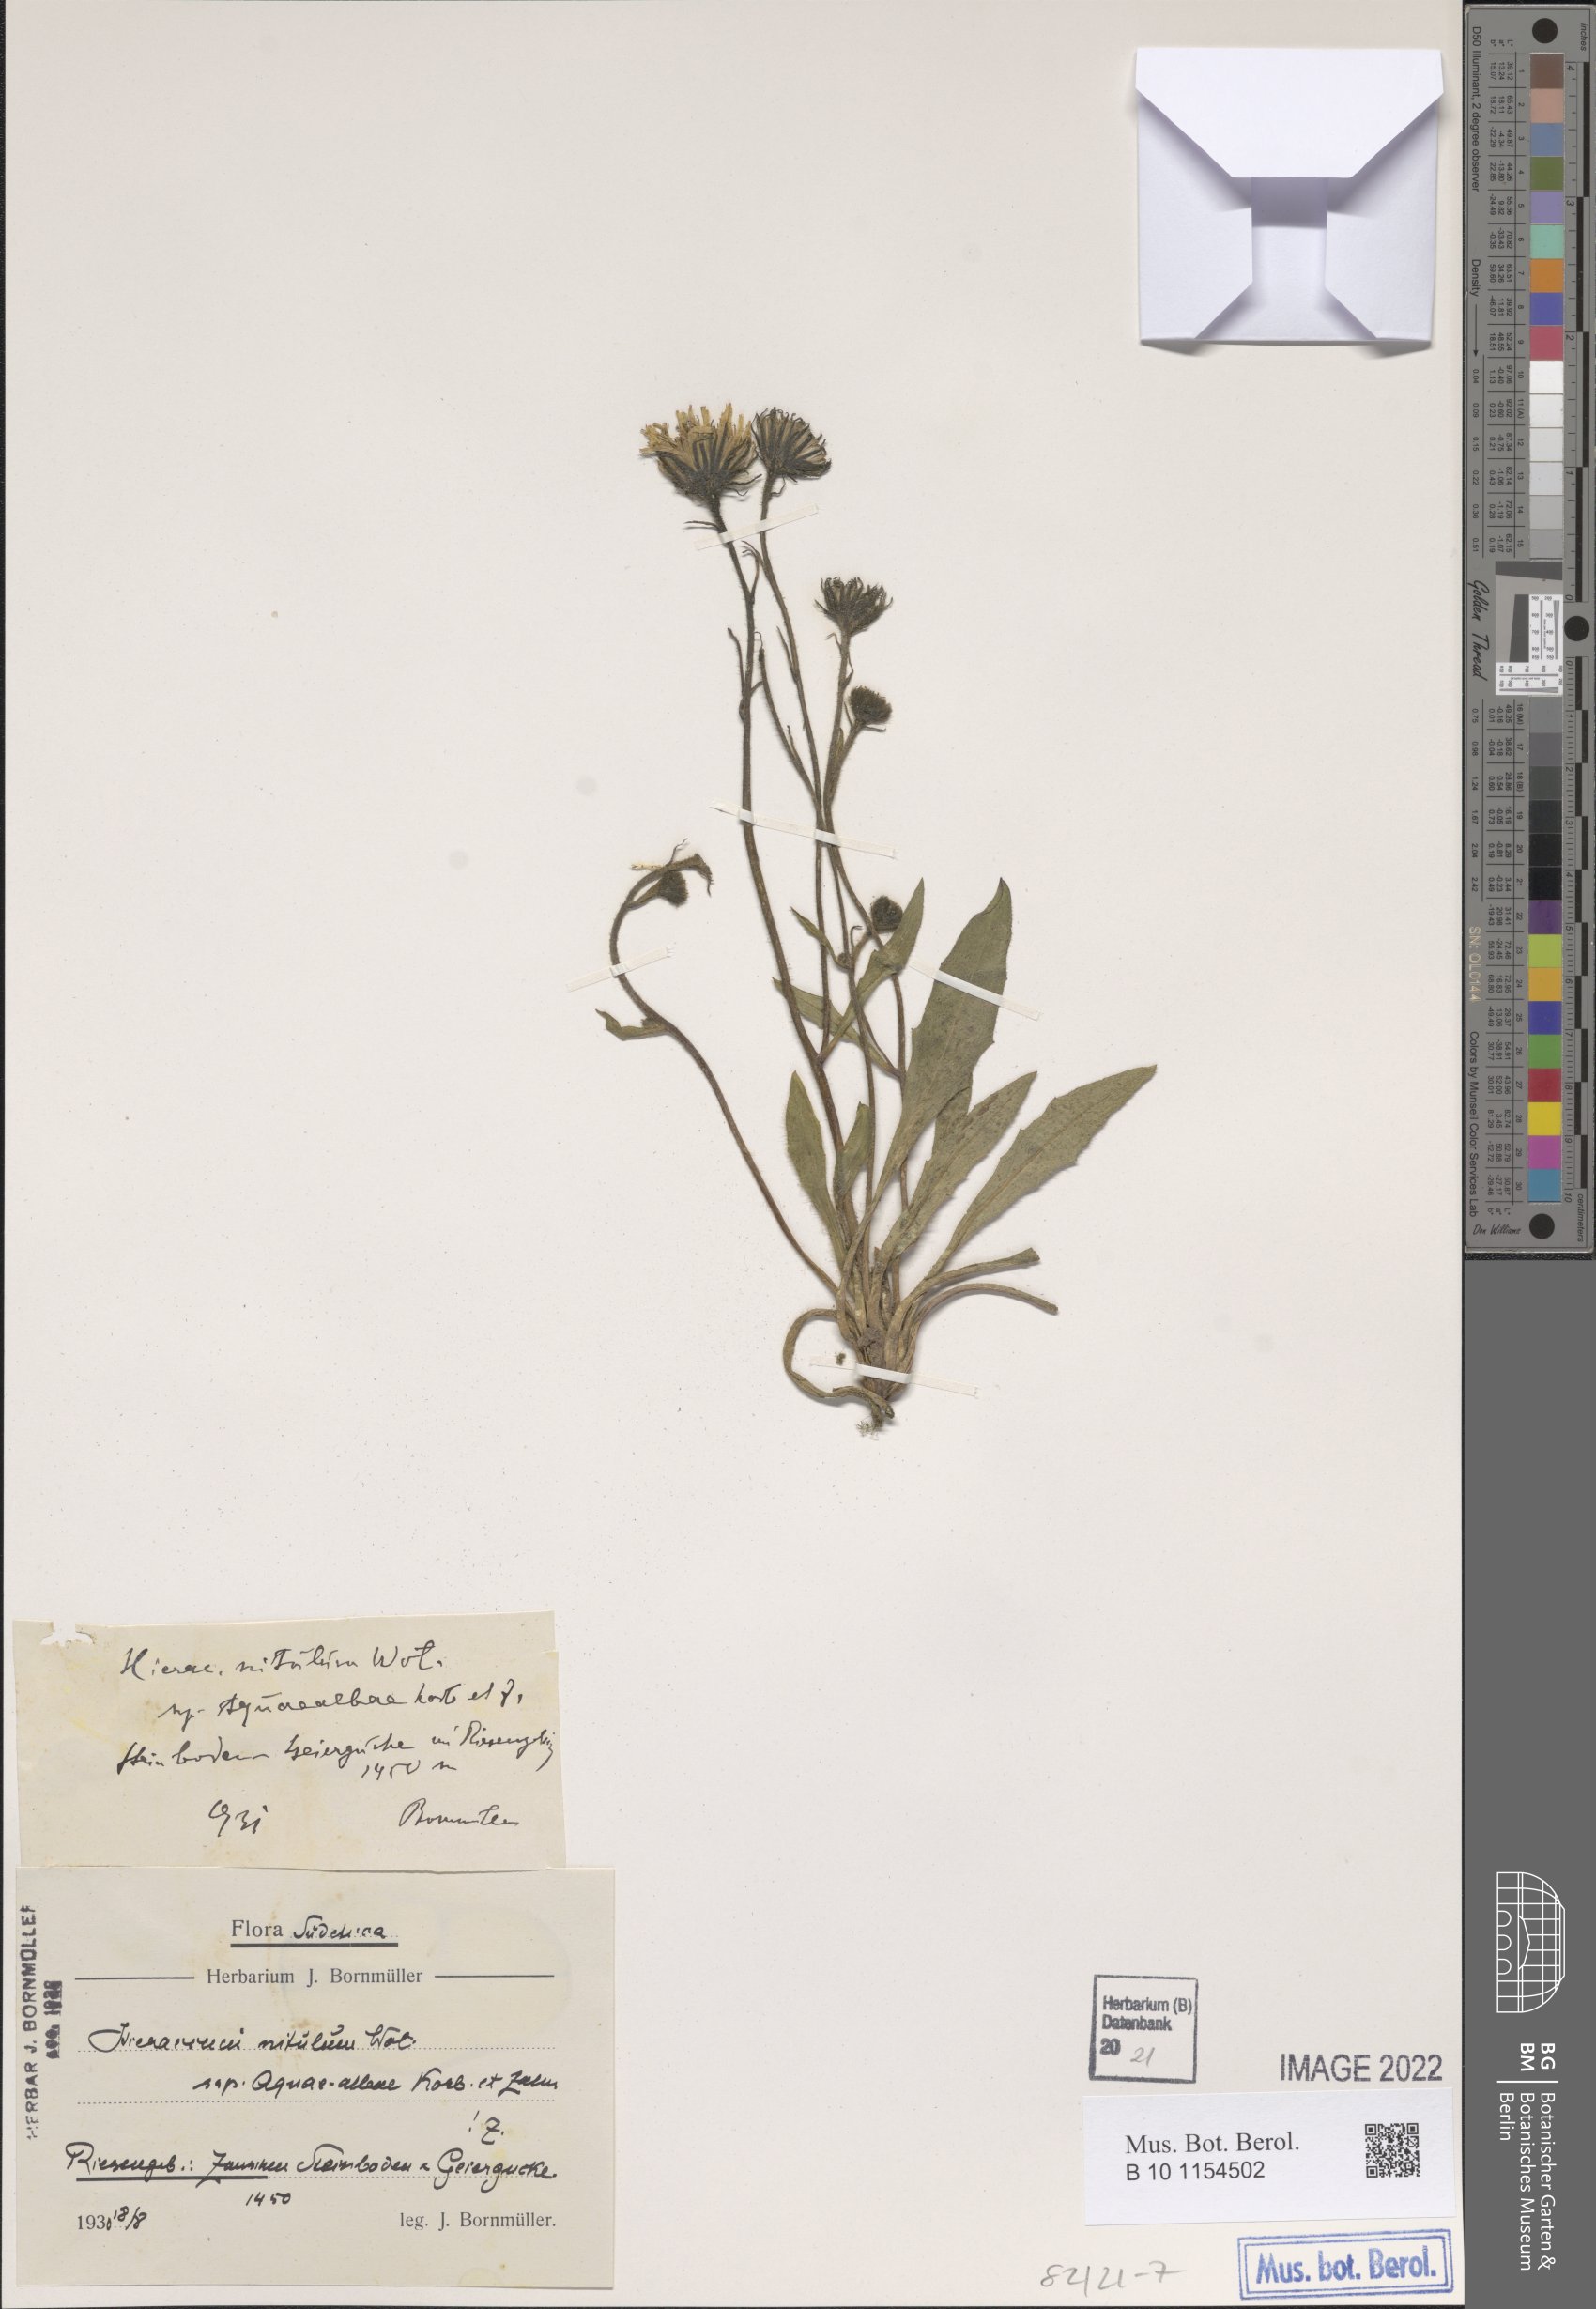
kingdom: Plantae
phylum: Tracheophyta
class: Magnoliopsida
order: Asterales
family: Asteraceae
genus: Hieracium
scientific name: Hieracium scitulum
